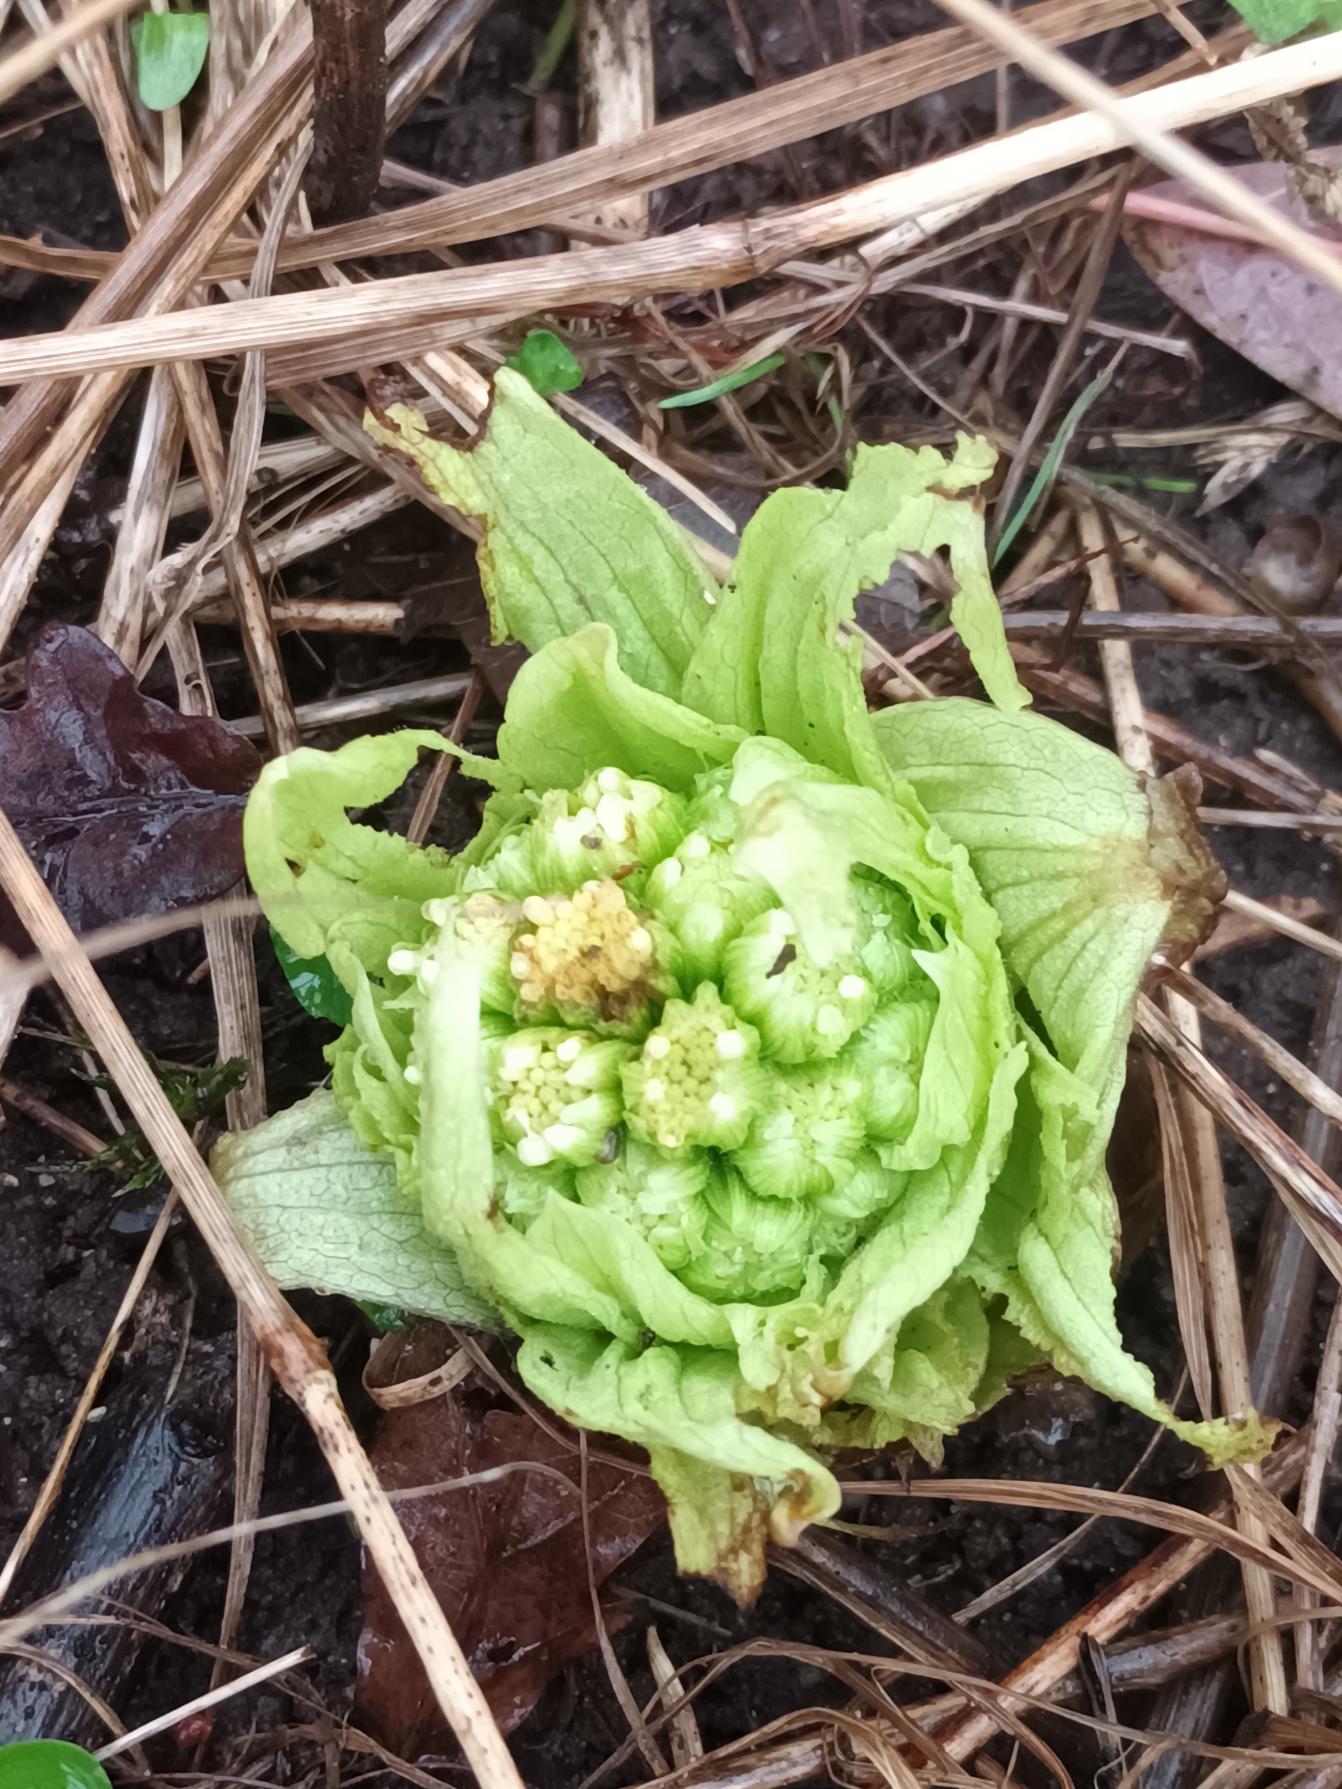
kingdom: Plantae
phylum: Tracheophyta
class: Magnoliopsida
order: Asterales
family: Asteraceae
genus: Petasites
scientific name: Petasites japonicus
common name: Japansk hestehov
